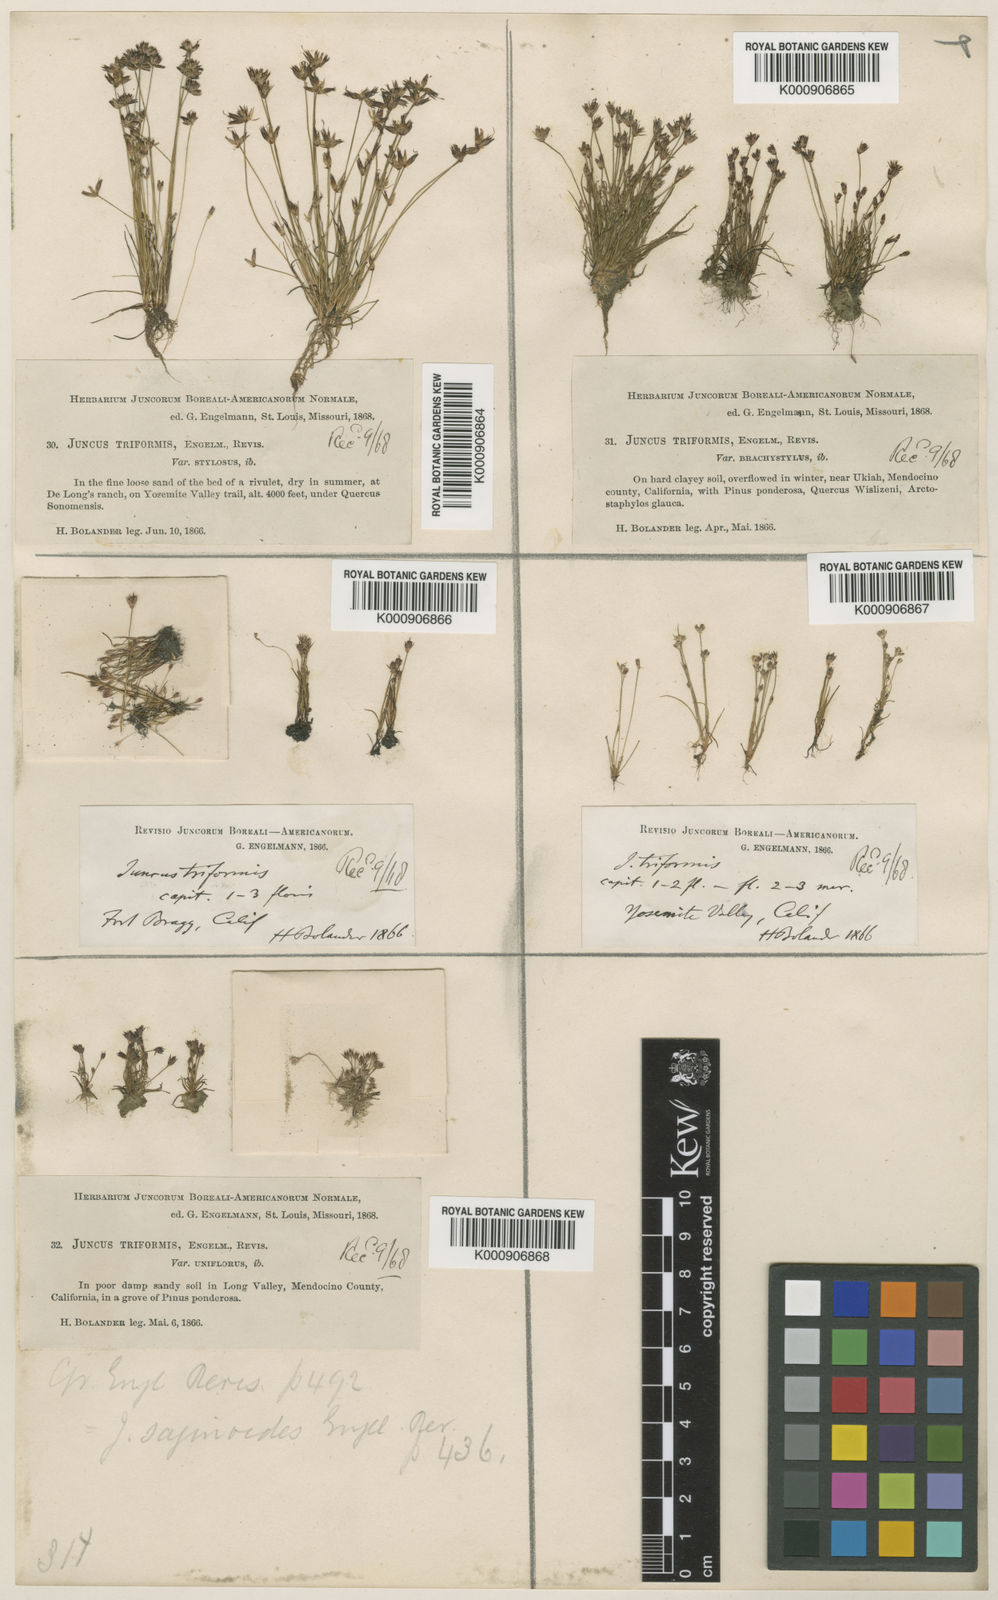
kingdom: Plantae
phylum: Tracheophyta
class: Liliopsida
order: Poales
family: Juncaceae
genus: Juncus
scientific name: Juncus triformis
